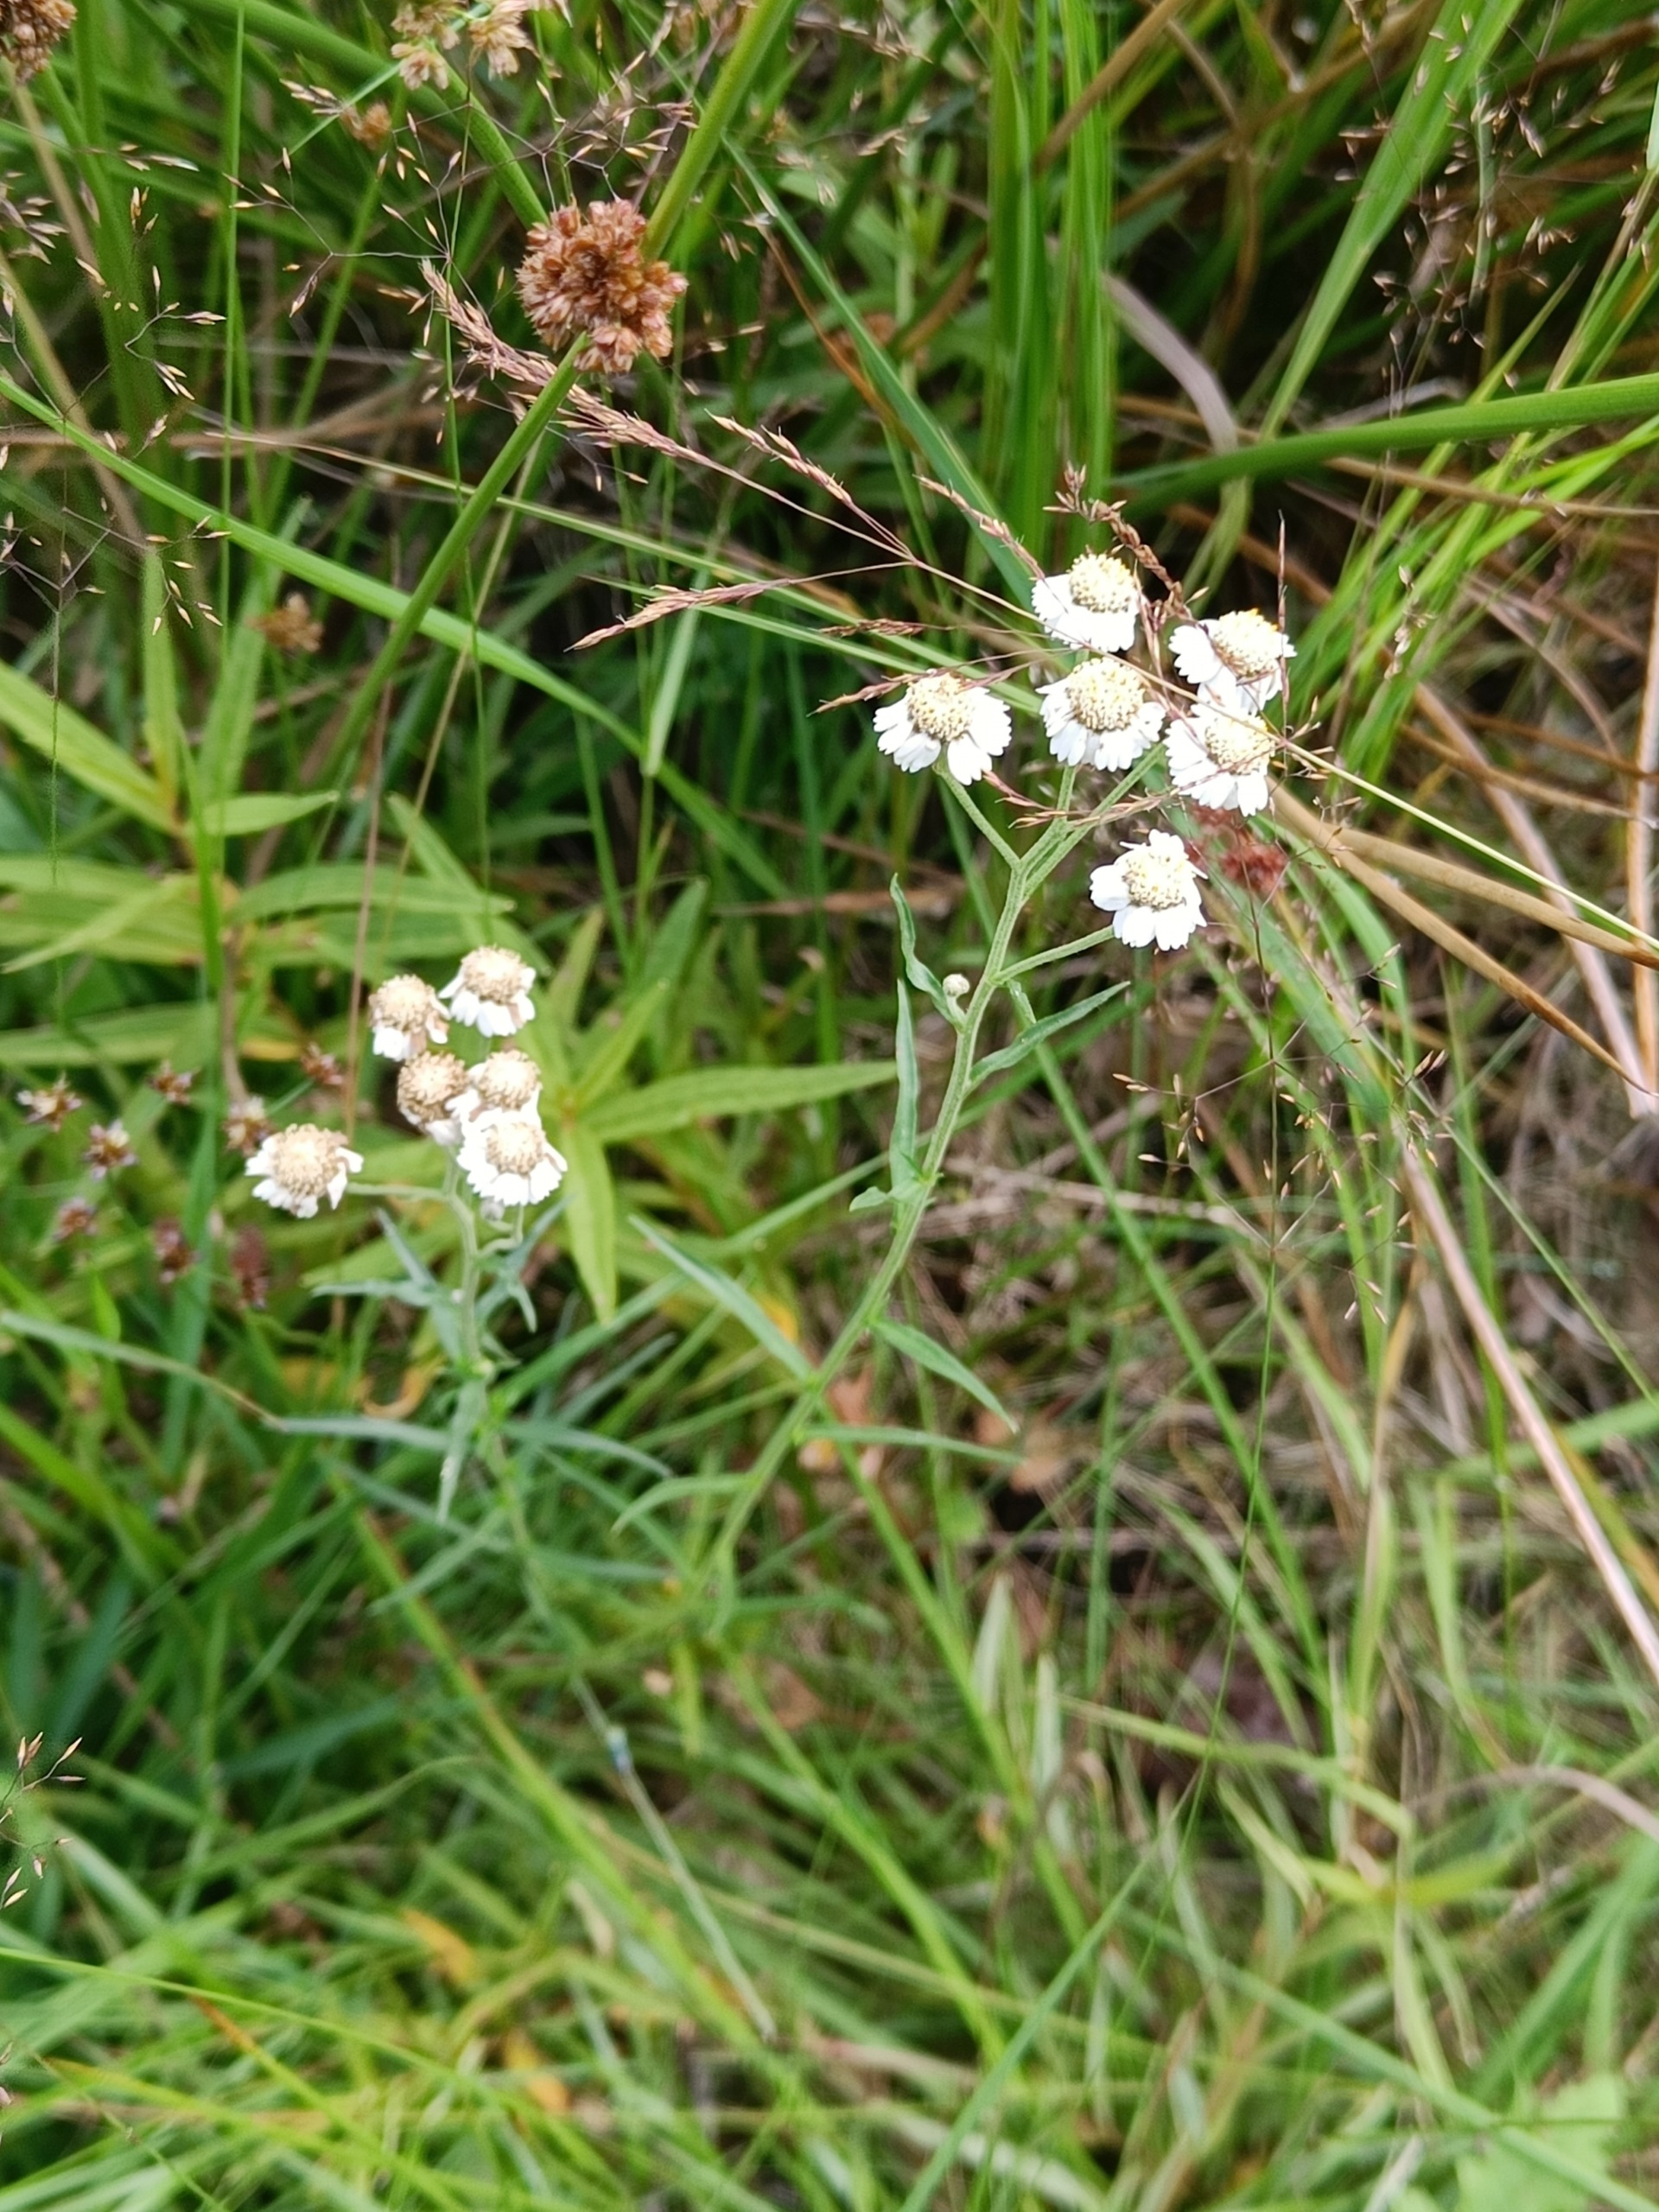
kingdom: Plantae
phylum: Tracheophyta
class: Magnoliopsida
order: Asterales
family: Asteraceae
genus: Achillea
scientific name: Achillea ptarmica
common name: Nyse-røllike
